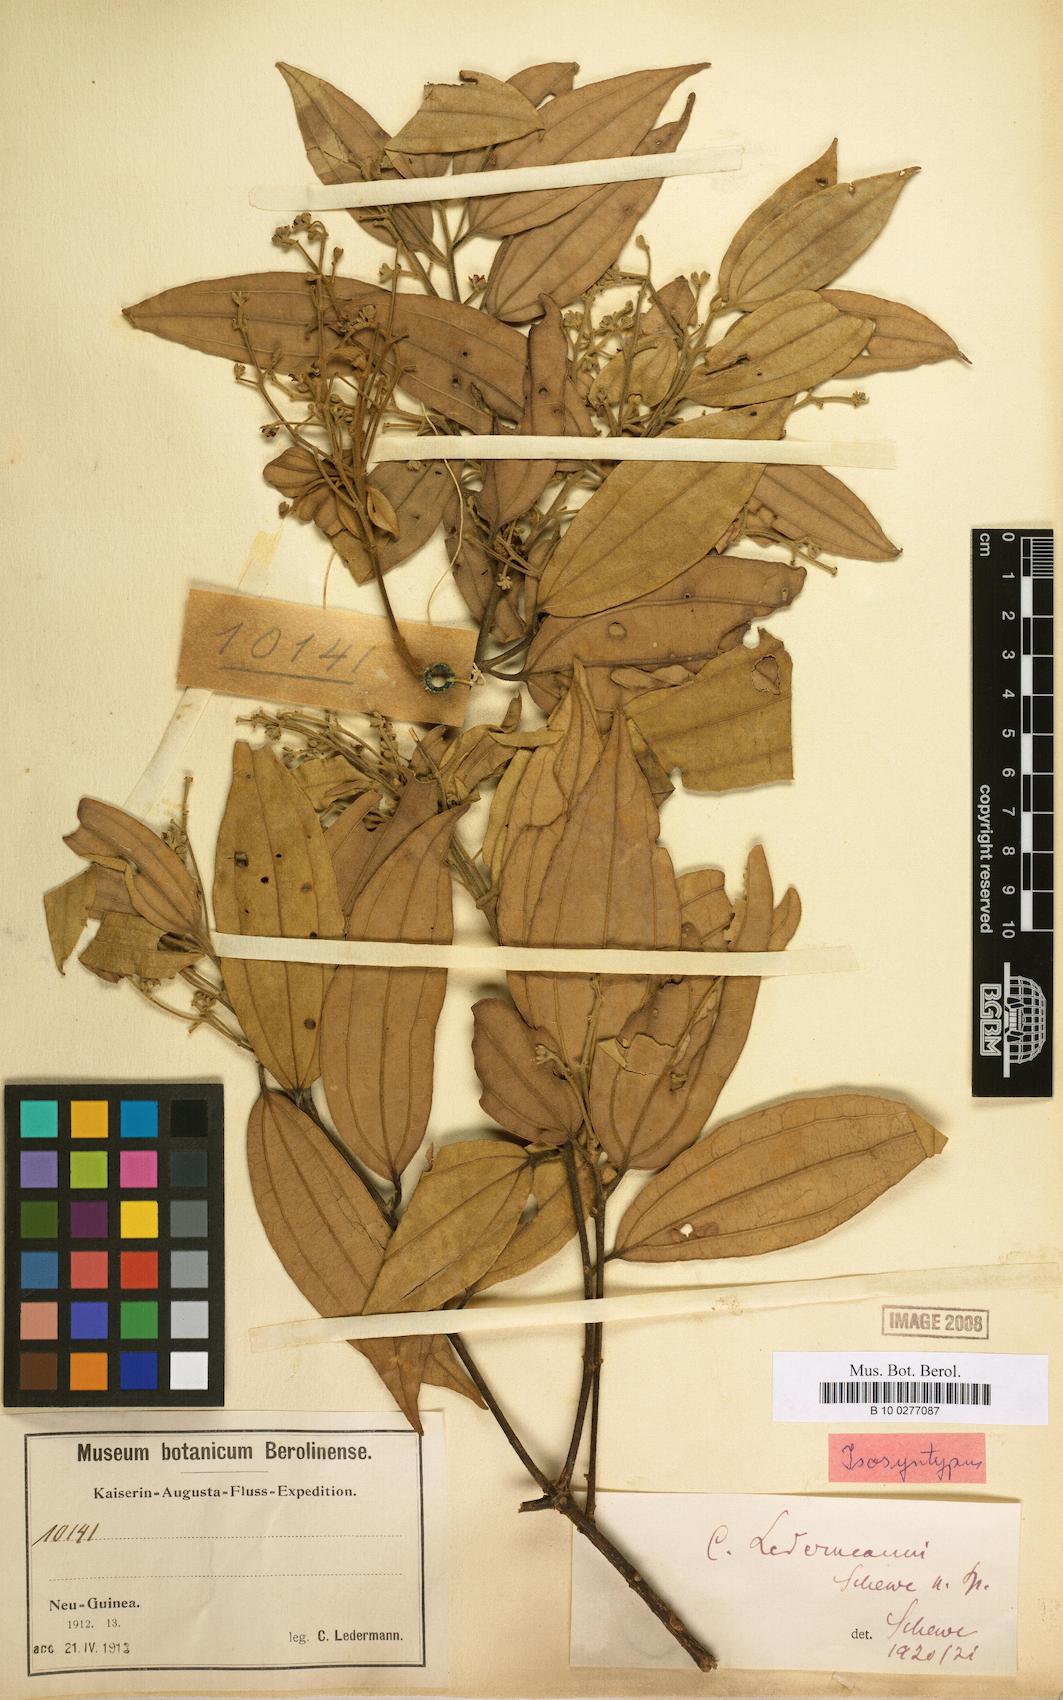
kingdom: Plantae
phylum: Tracheophyta
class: Magnoliopsida
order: Laurales
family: Lauraceae
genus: Cinnamomum
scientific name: Cinnamomum ledermannii
